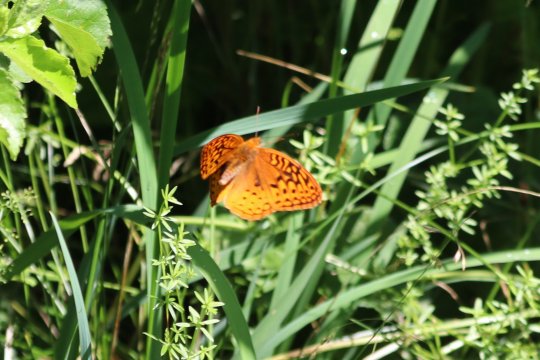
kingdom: Animalia
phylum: Arthropoda
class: Insecta
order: Lepidoptera
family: Nymphalidae
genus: Speyeria
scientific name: Speyeria cybele
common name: Great Spangled Fritillary
